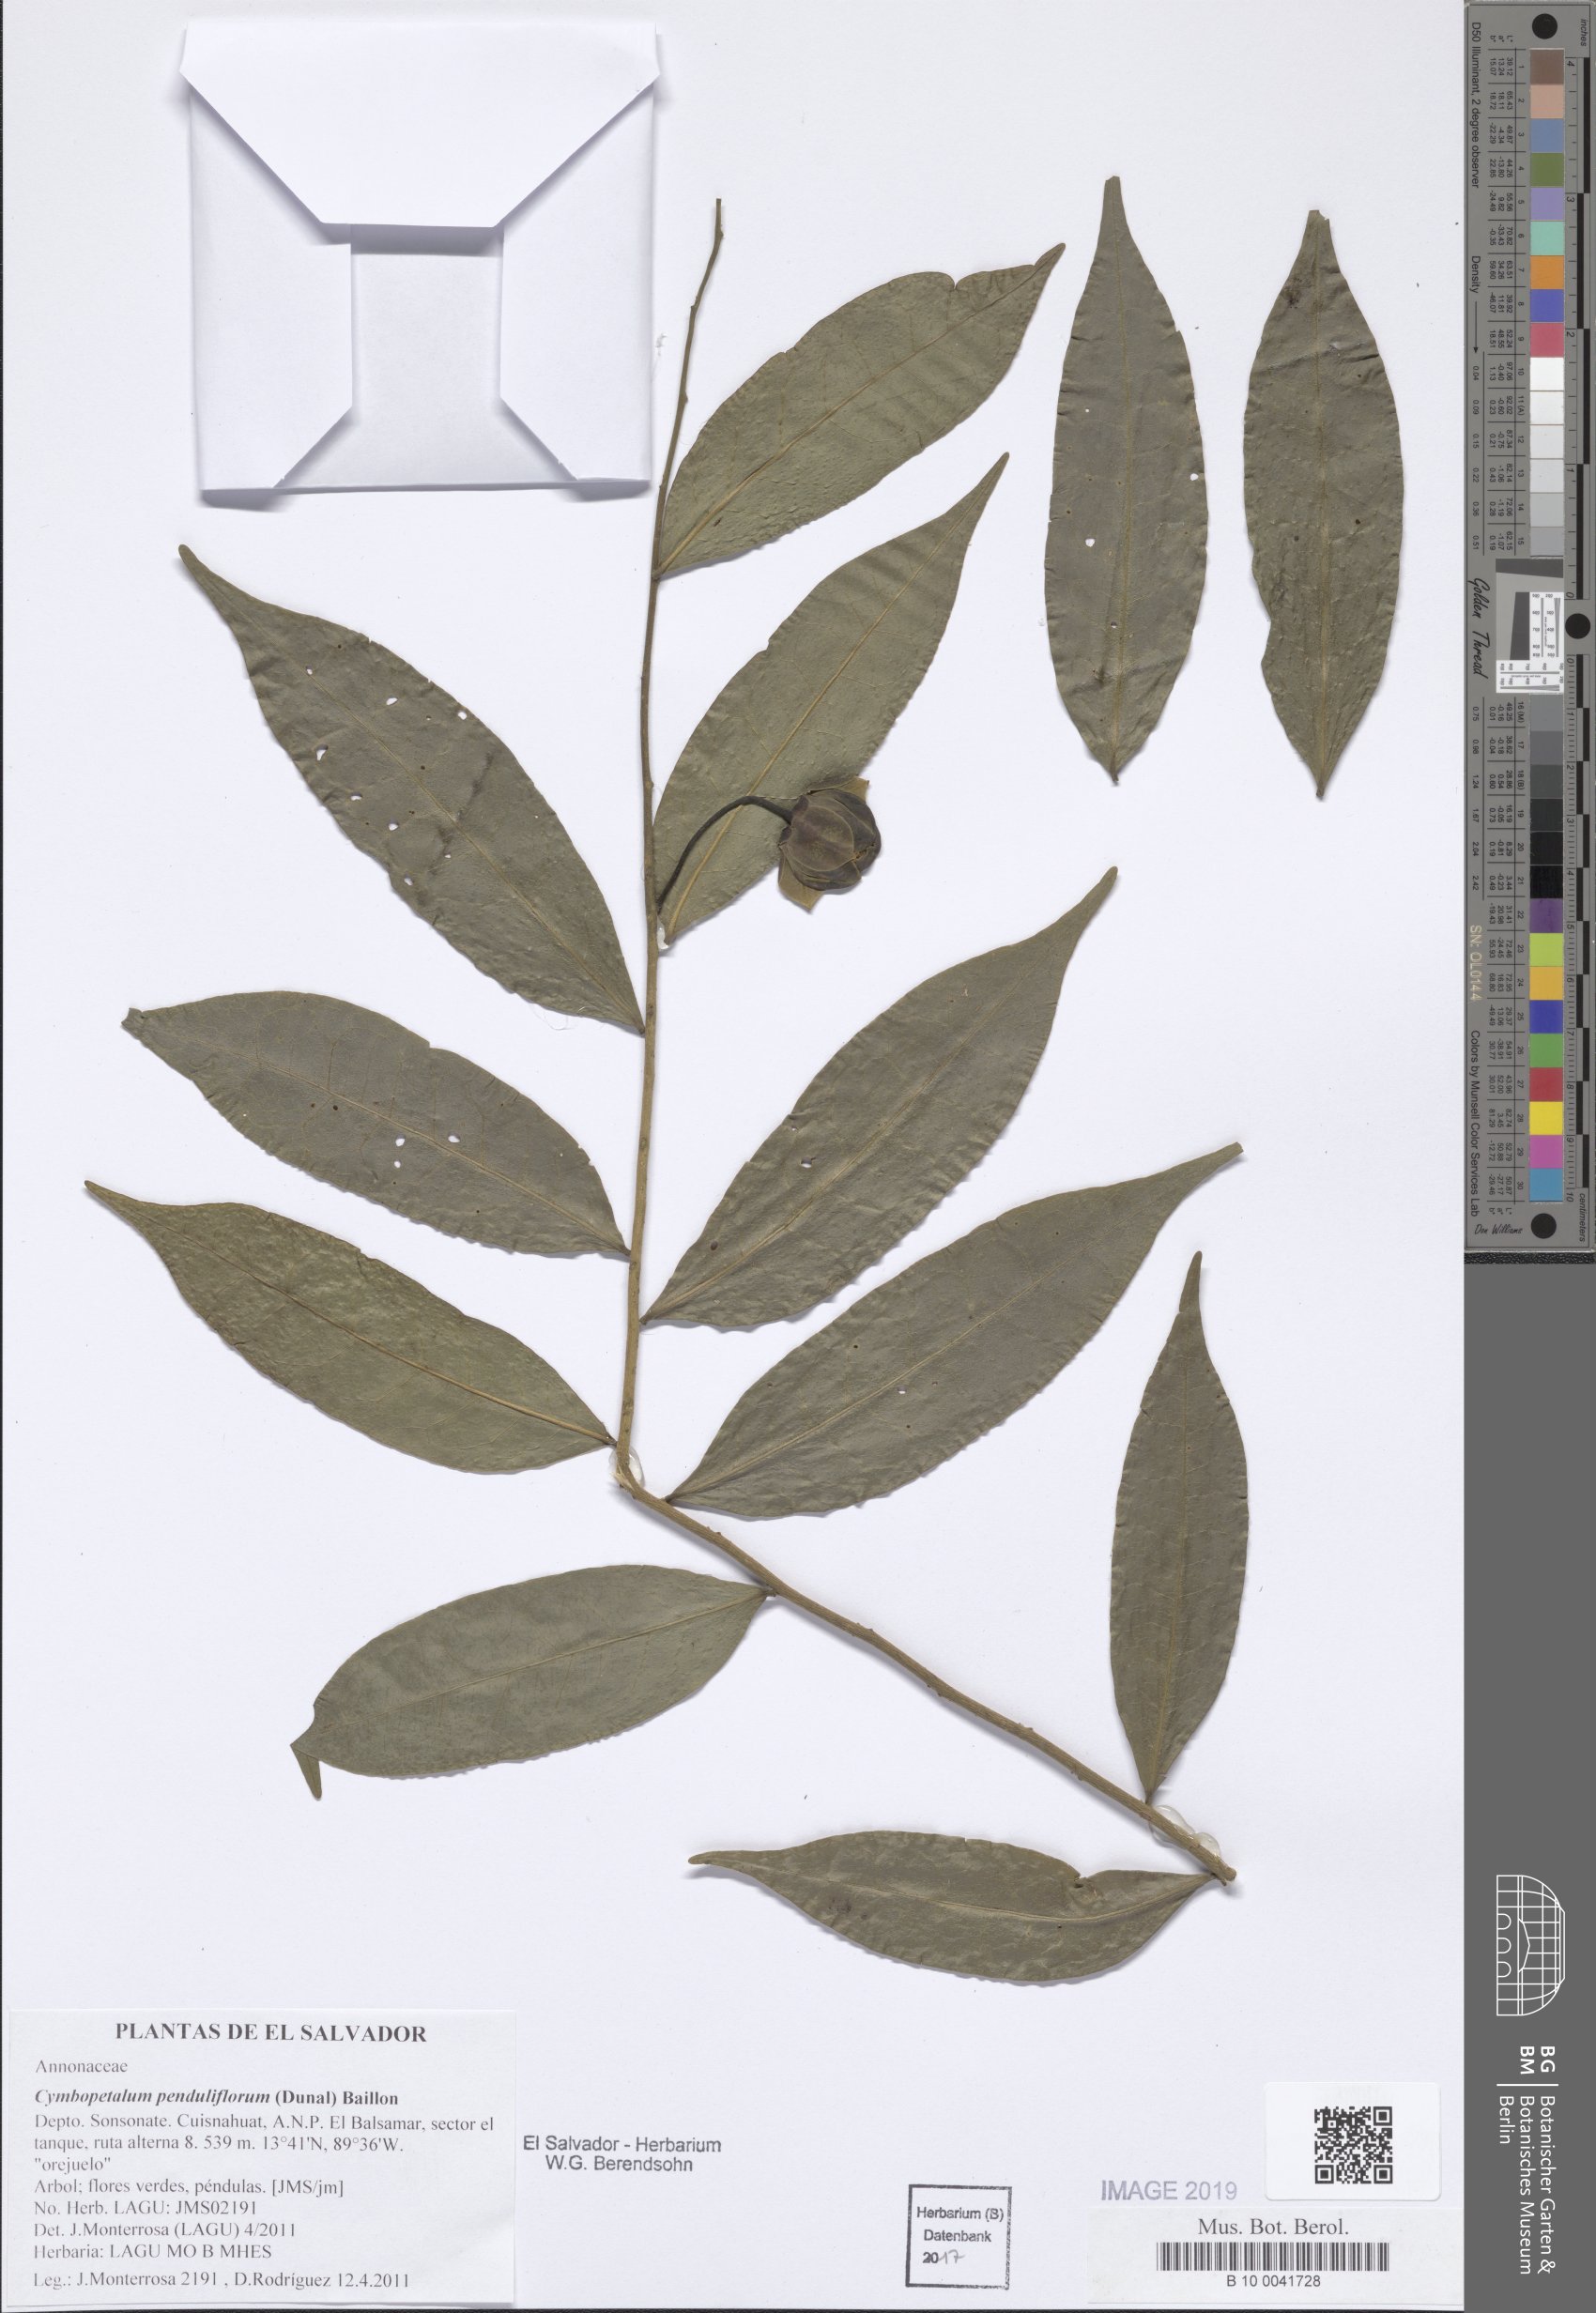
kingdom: Plantae
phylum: Tracheophyta
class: Magnoliopsida
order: Magnoliales
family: Annonaceae
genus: Cymbopetalum
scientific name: Cymbopetalum penduliflorum
